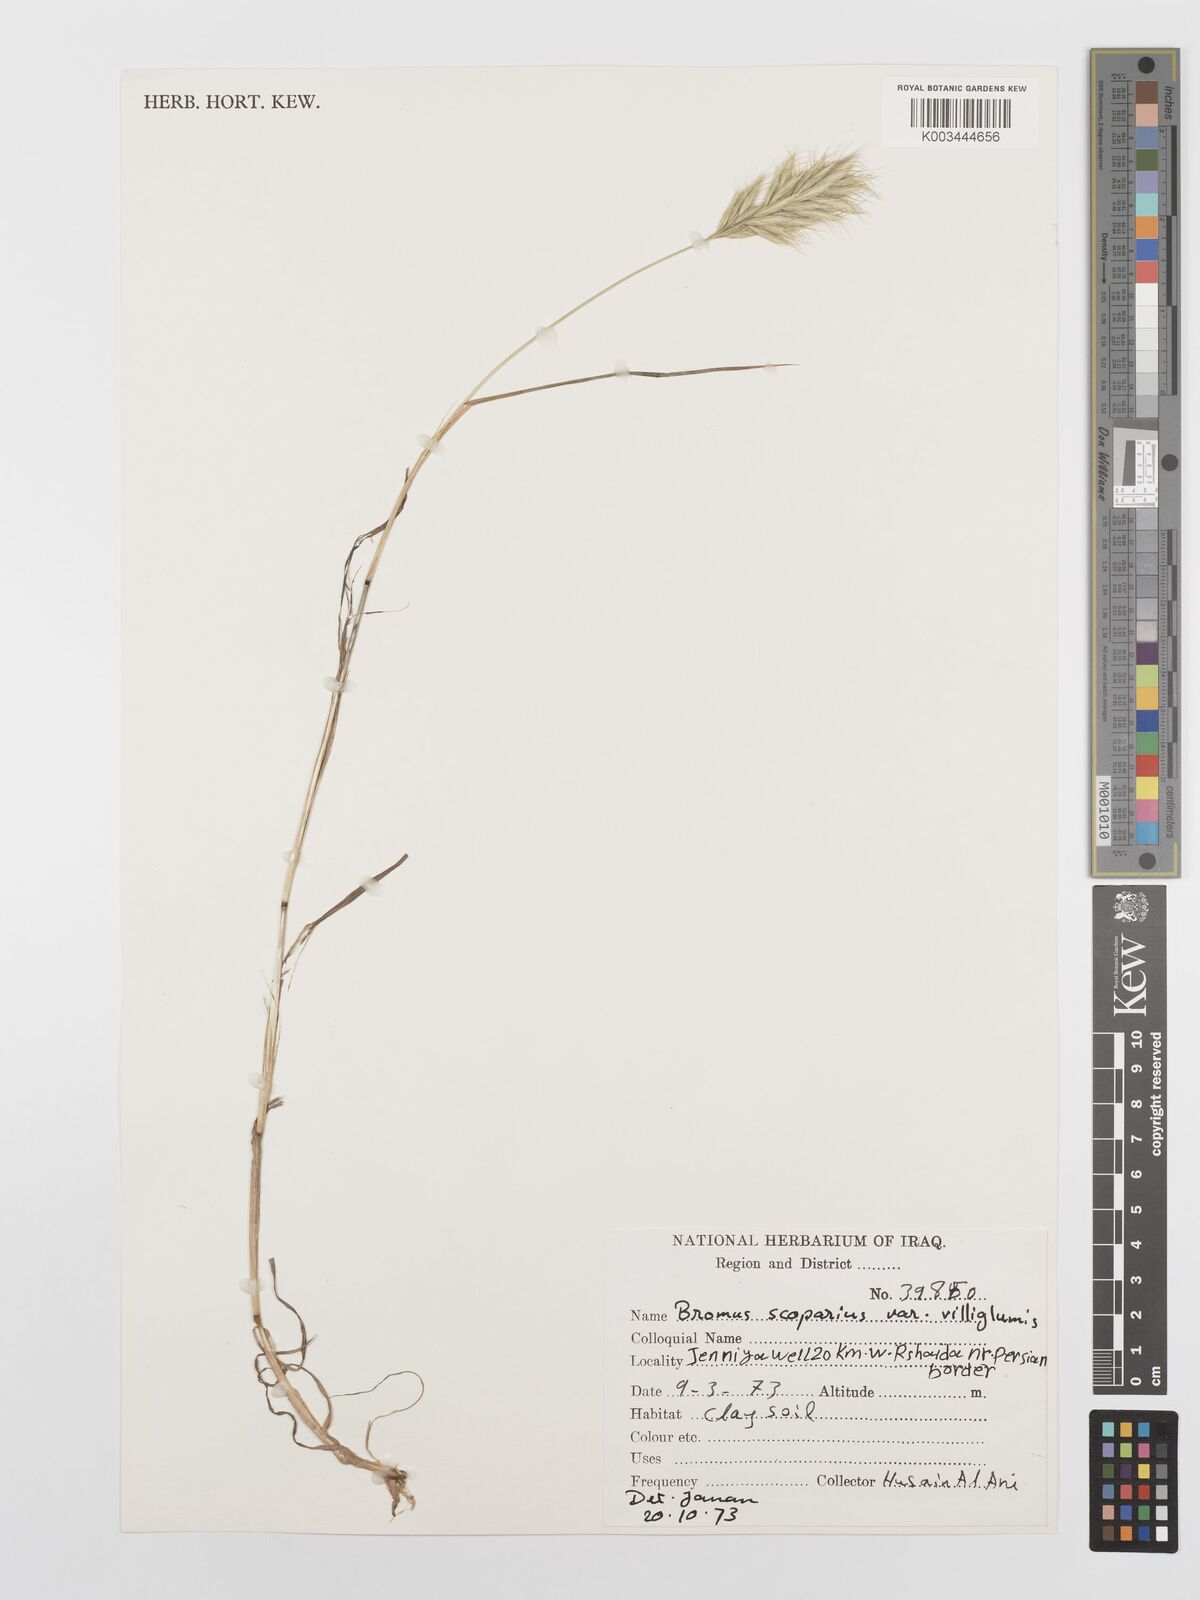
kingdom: Plantae
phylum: Tracheophyta
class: Liliopsida
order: Poales
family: Poaceae
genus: Bromus
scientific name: Bromus scoparius
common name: Broom brome
